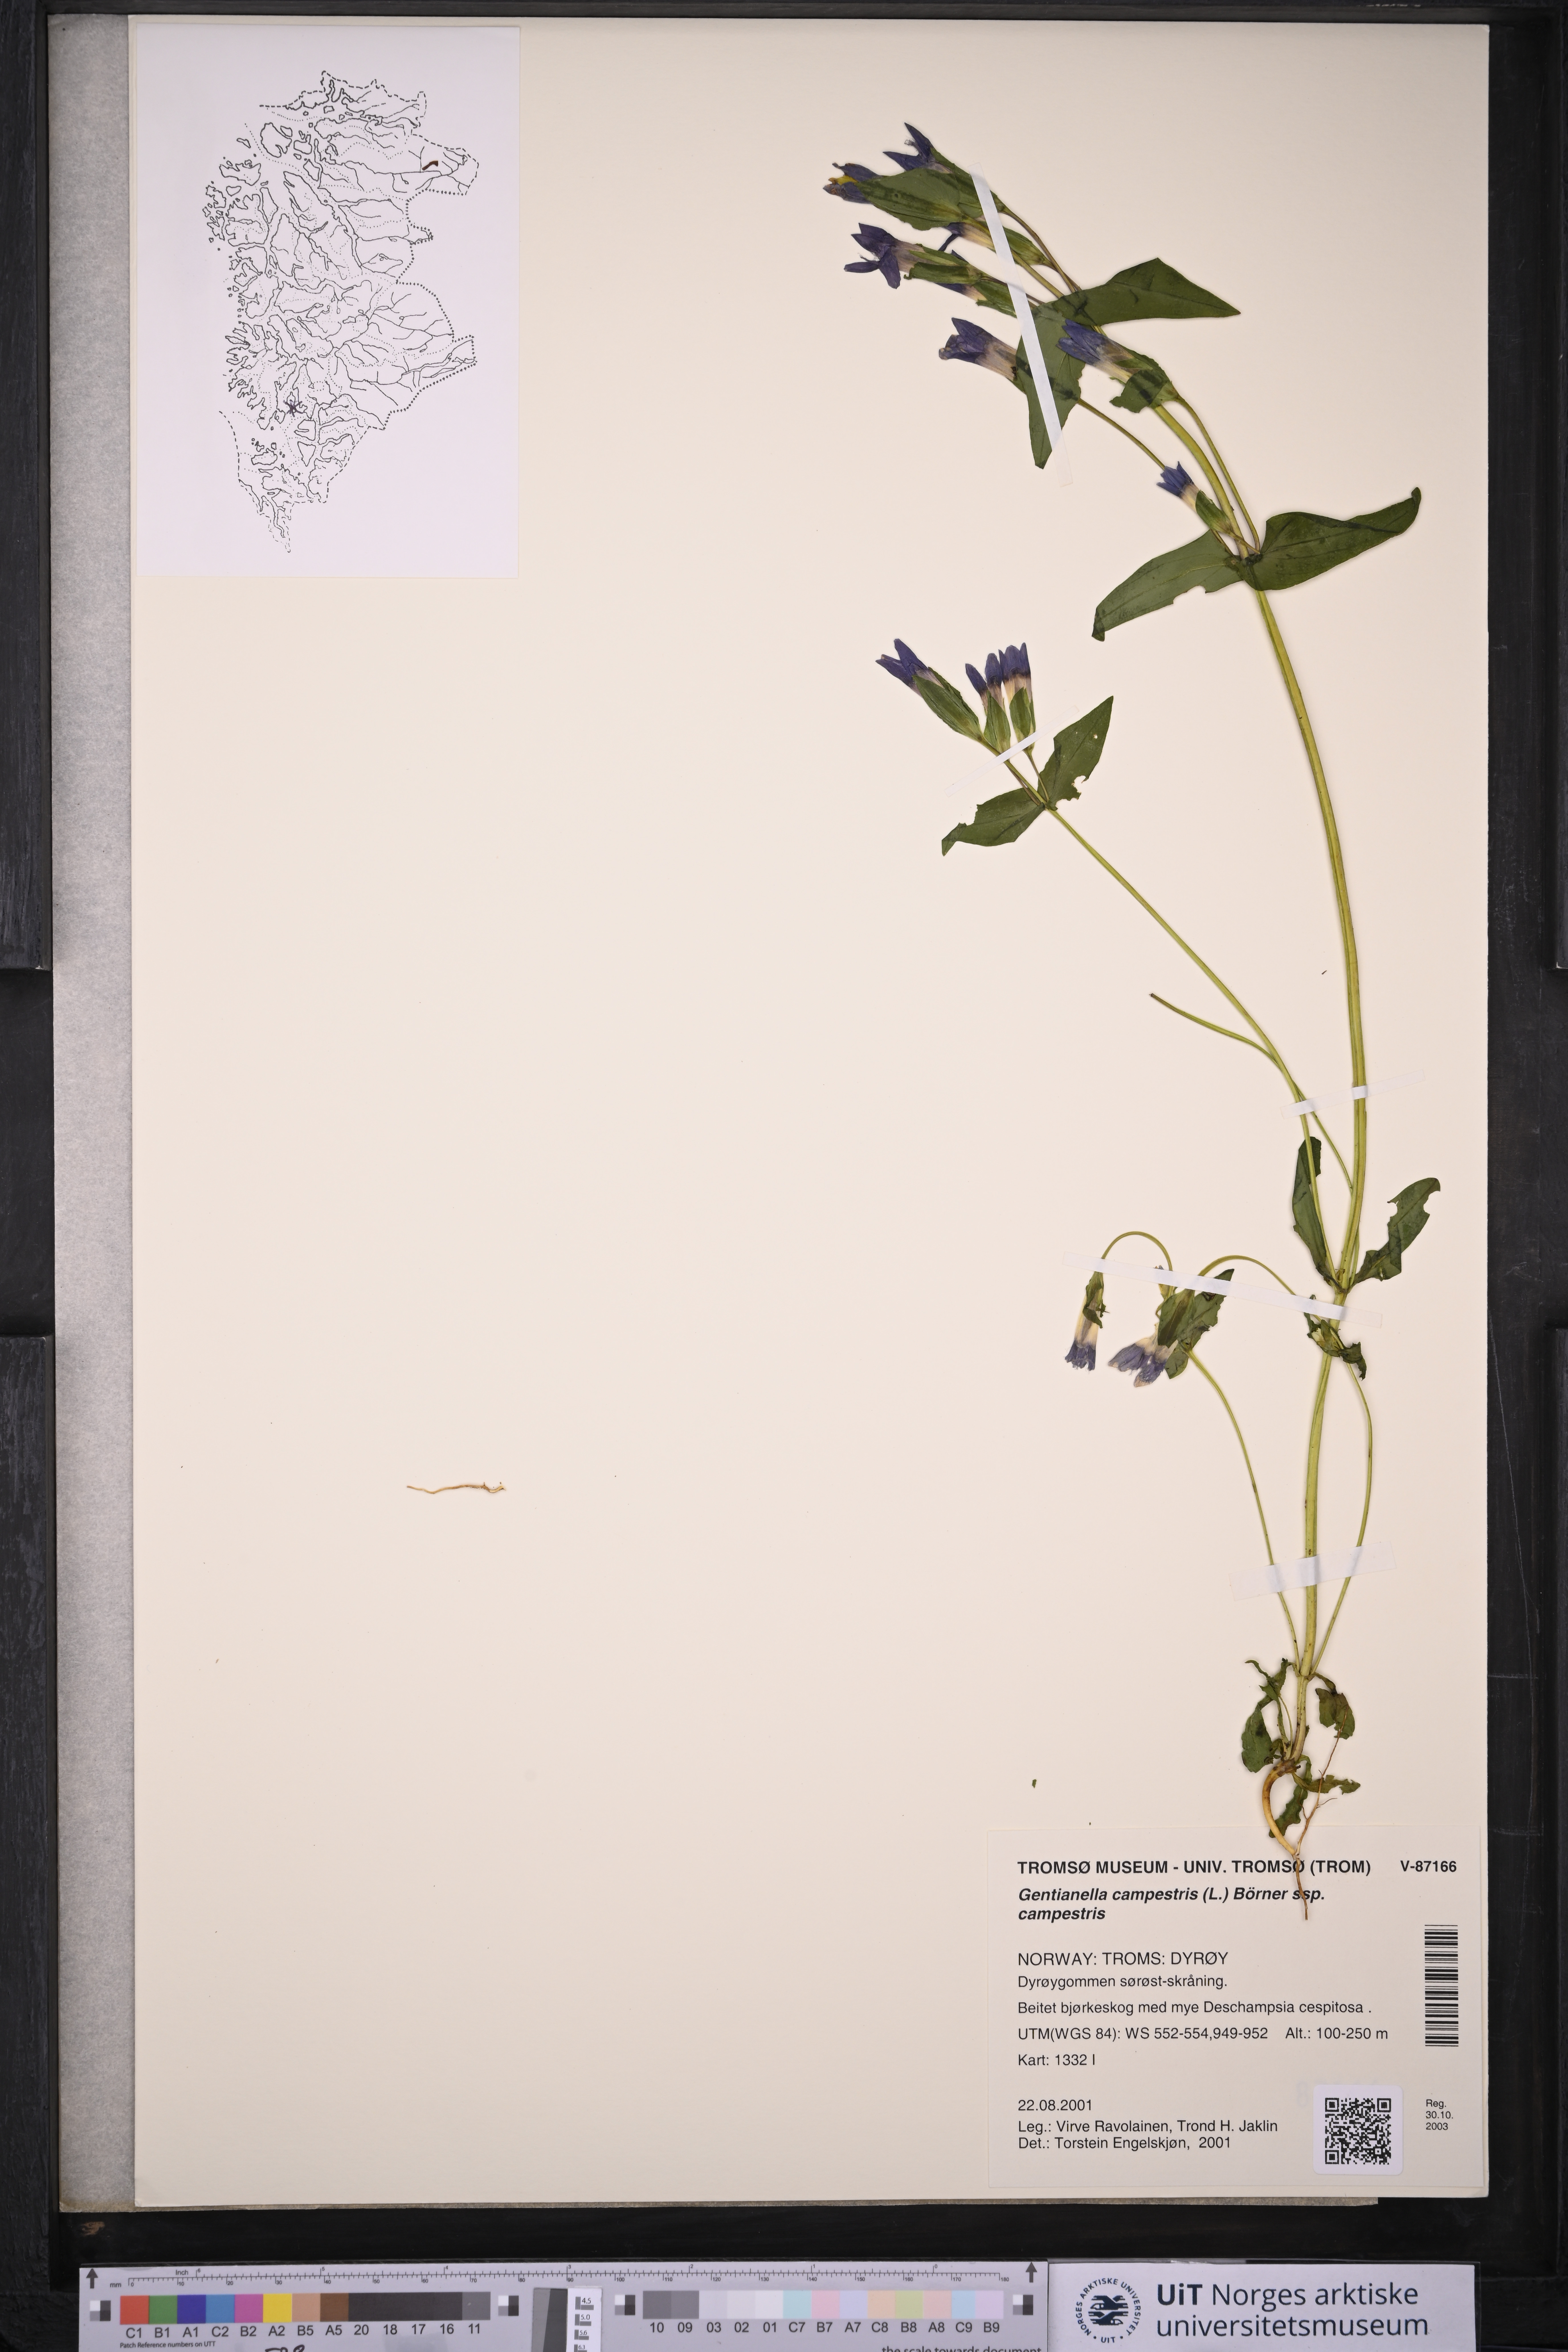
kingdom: Plantae
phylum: Tracheophyta
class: Magnoliopsida
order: Gentianales
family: Gentianaceae
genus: Gentianella
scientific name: Gentianella campestris
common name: Field gentian
